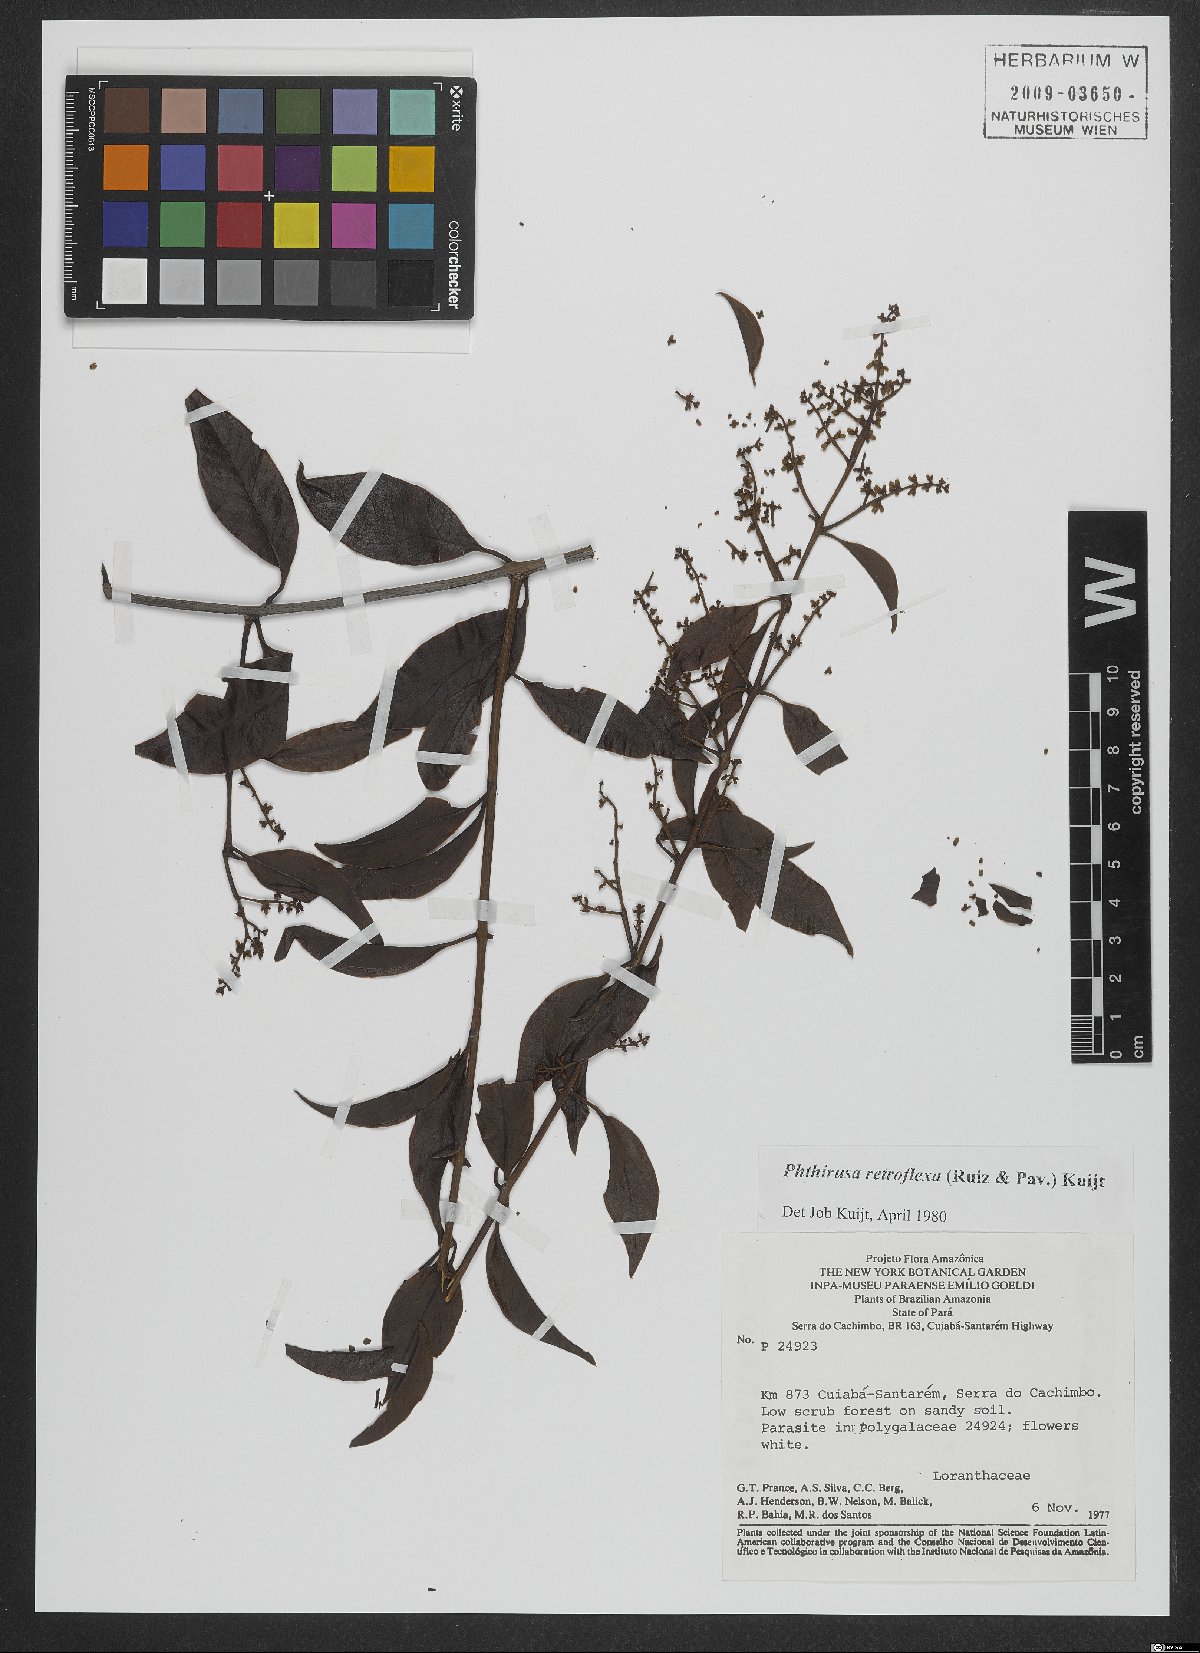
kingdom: Plantae
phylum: Tracheophyta
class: Magnoliopsida
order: Santalales
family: Loranthaceae
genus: Passovia
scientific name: Passovia pedunculata
